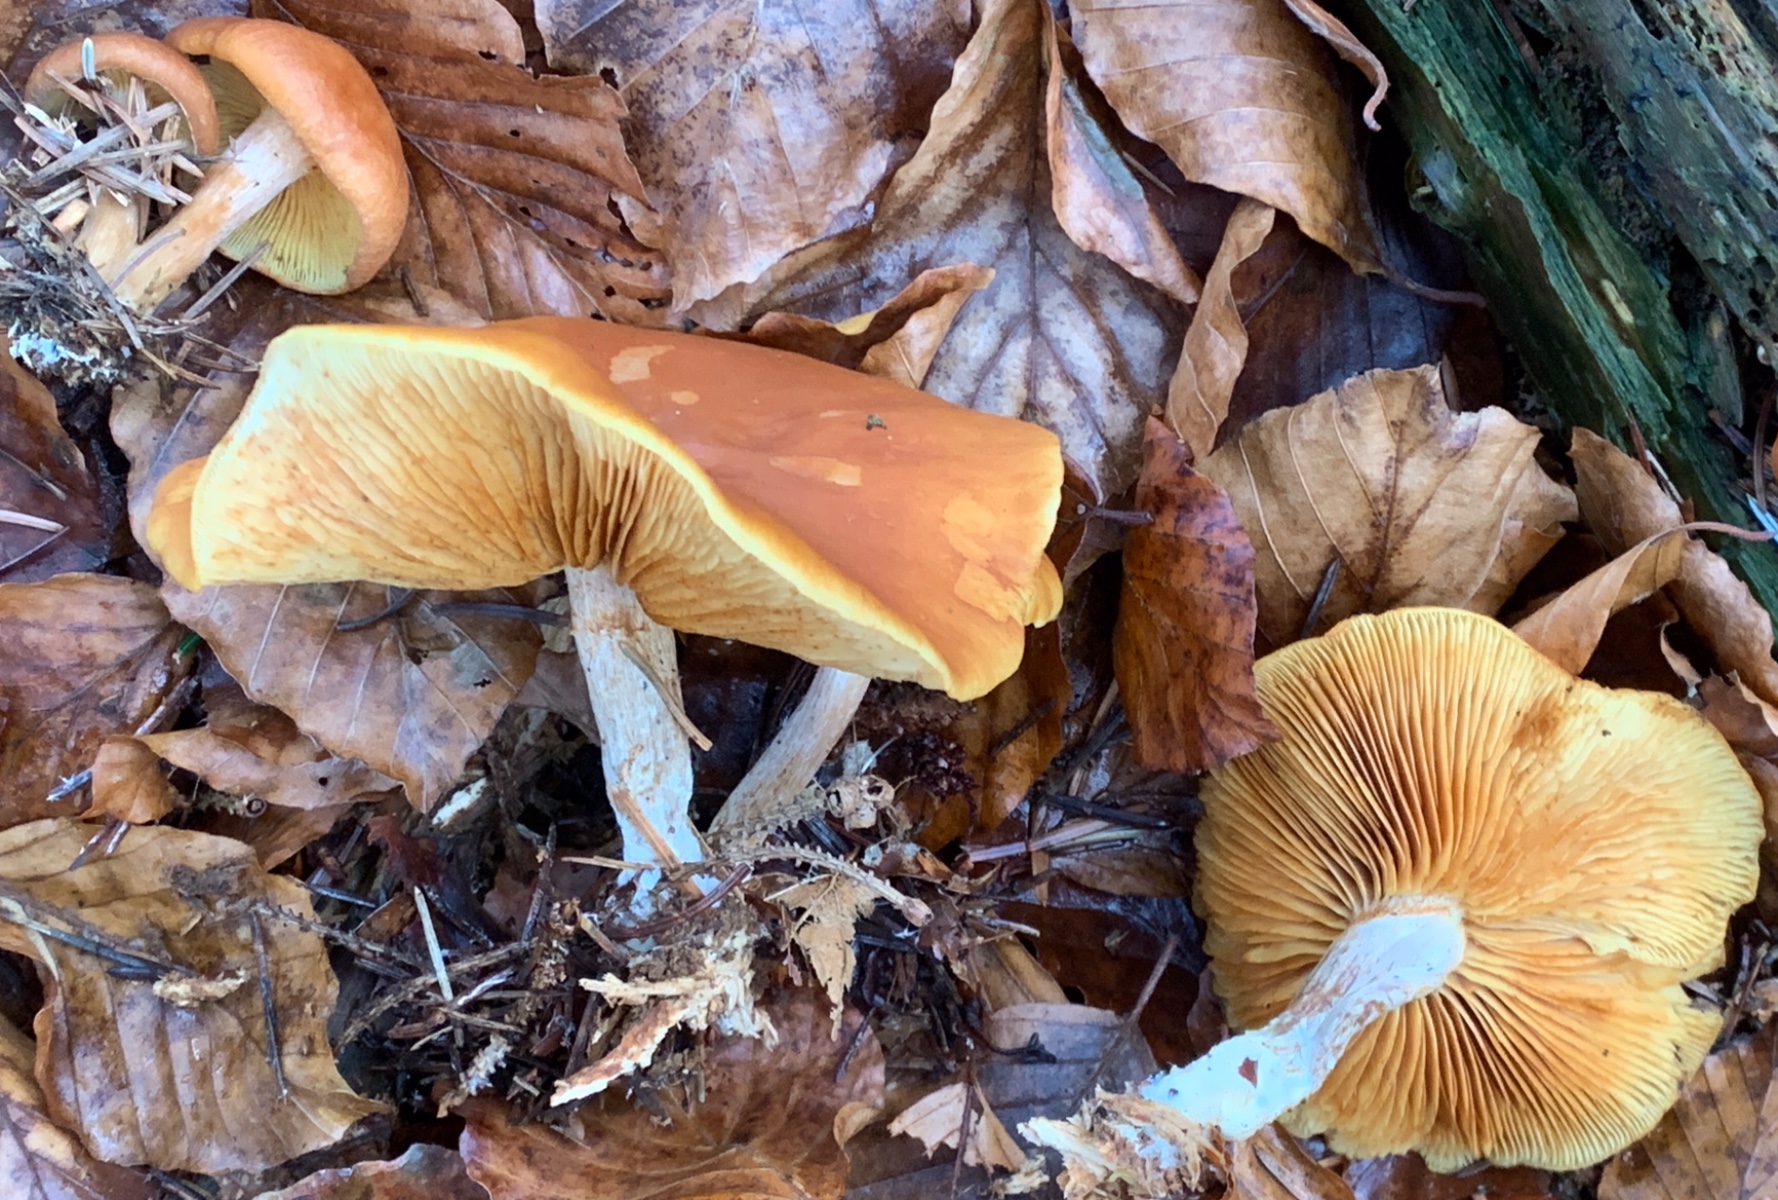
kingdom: Fungi
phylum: Basidiomycota
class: Agaricomycetes
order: Agaricales
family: Hymenogastraceae
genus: Gymnopilus
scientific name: Gymnopilus penetrans
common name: plettet flammehat
